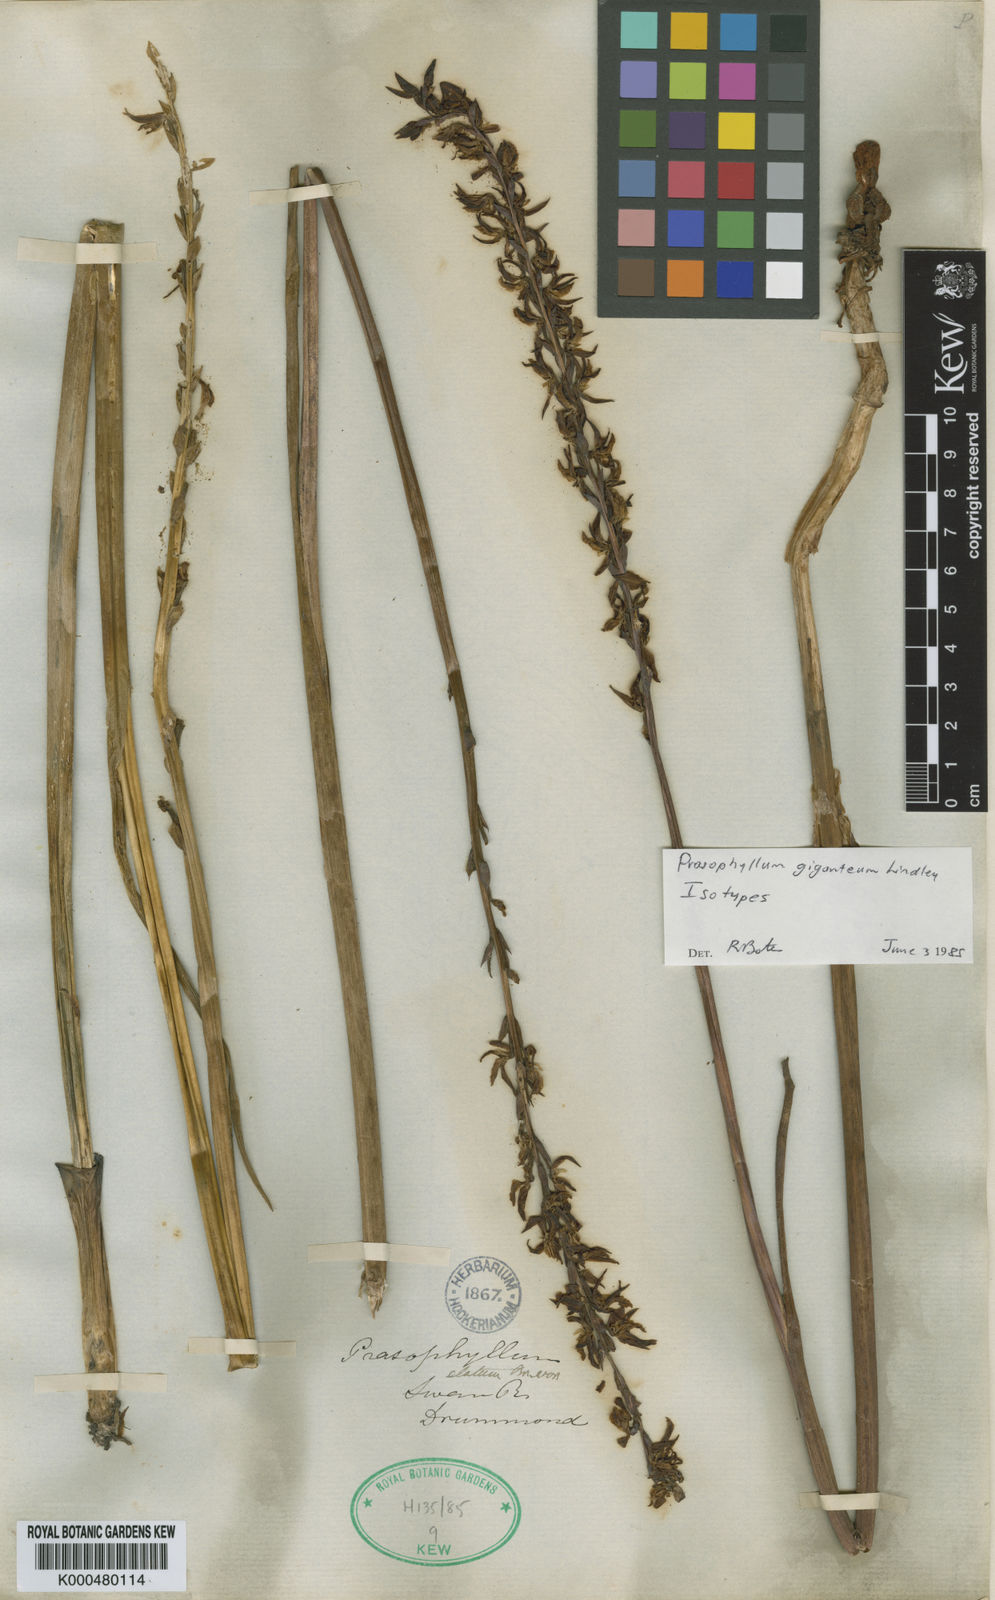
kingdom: Plantae
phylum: Tracheophyta
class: Liliopsida
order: Asparagales
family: Orchidaceae
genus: Prasophyllum
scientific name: Prasophyllum giganteum
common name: Bronze leek orchid
